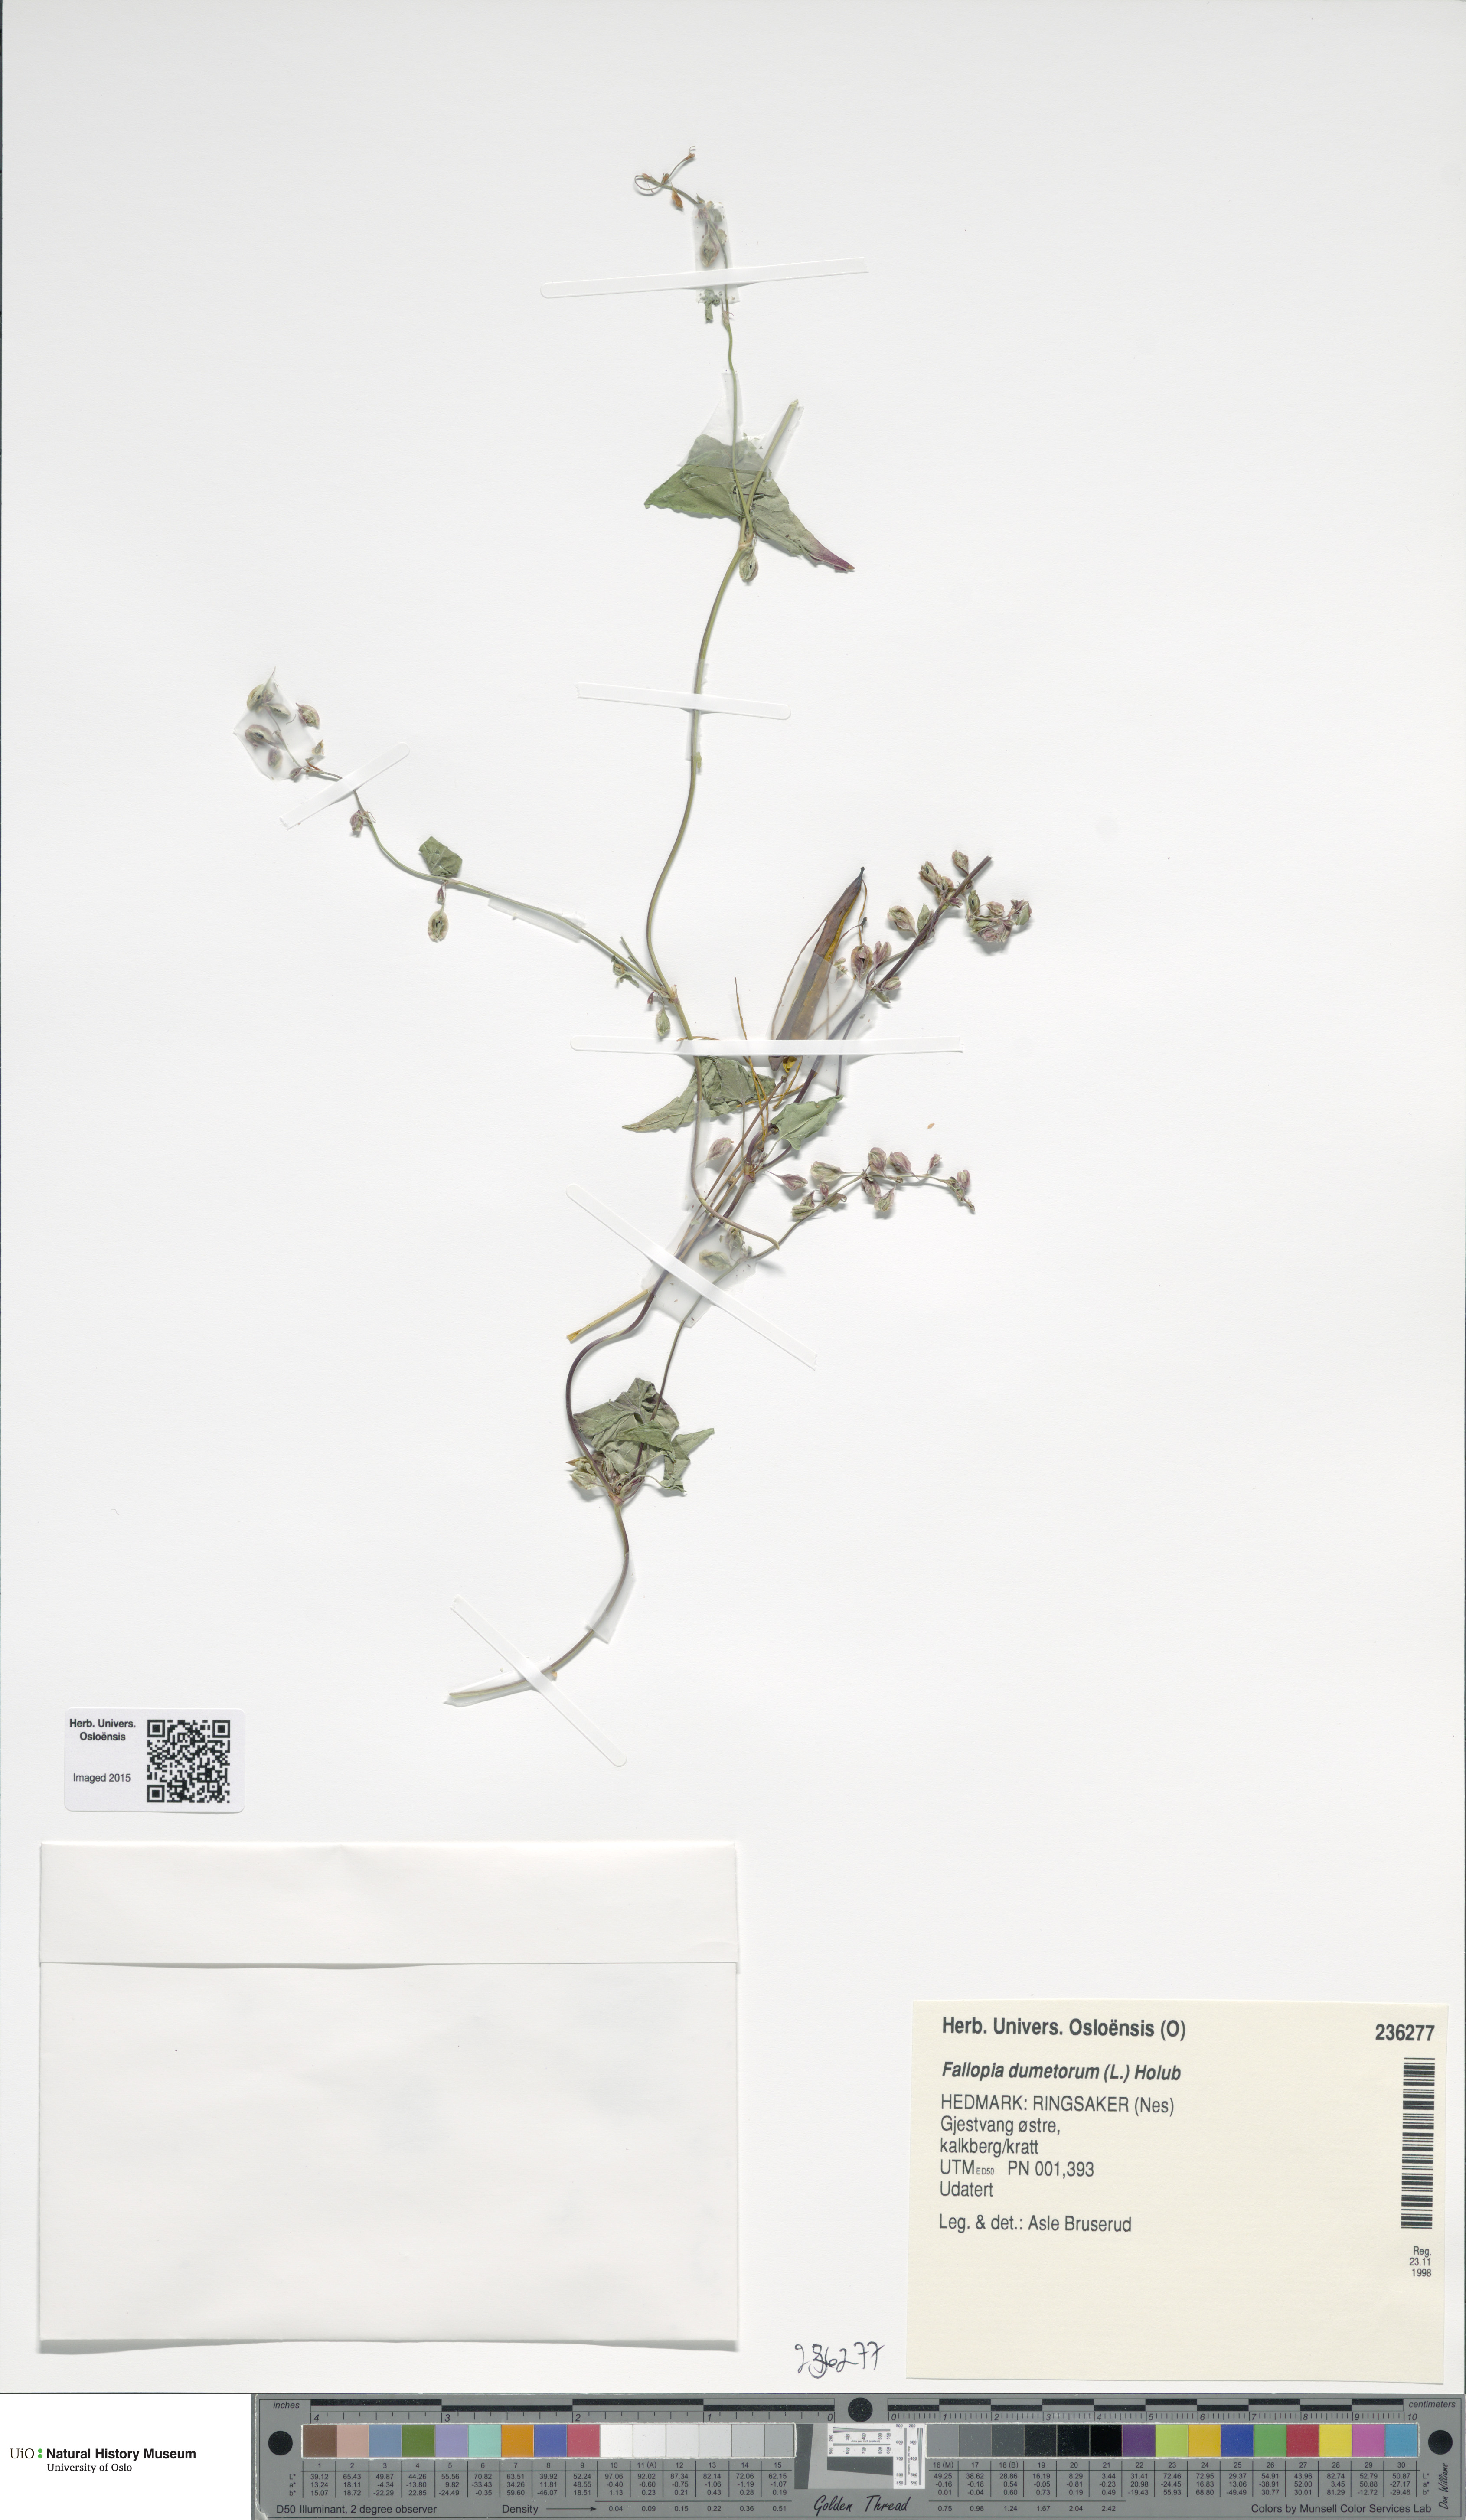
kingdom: Plantae
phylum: Tracheophyta
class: Magnoliopsida
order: Caryophyllales
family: Polygonaceae
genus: Fallopia
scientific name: Fallopia dumetorum
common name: Copse-bindweed
